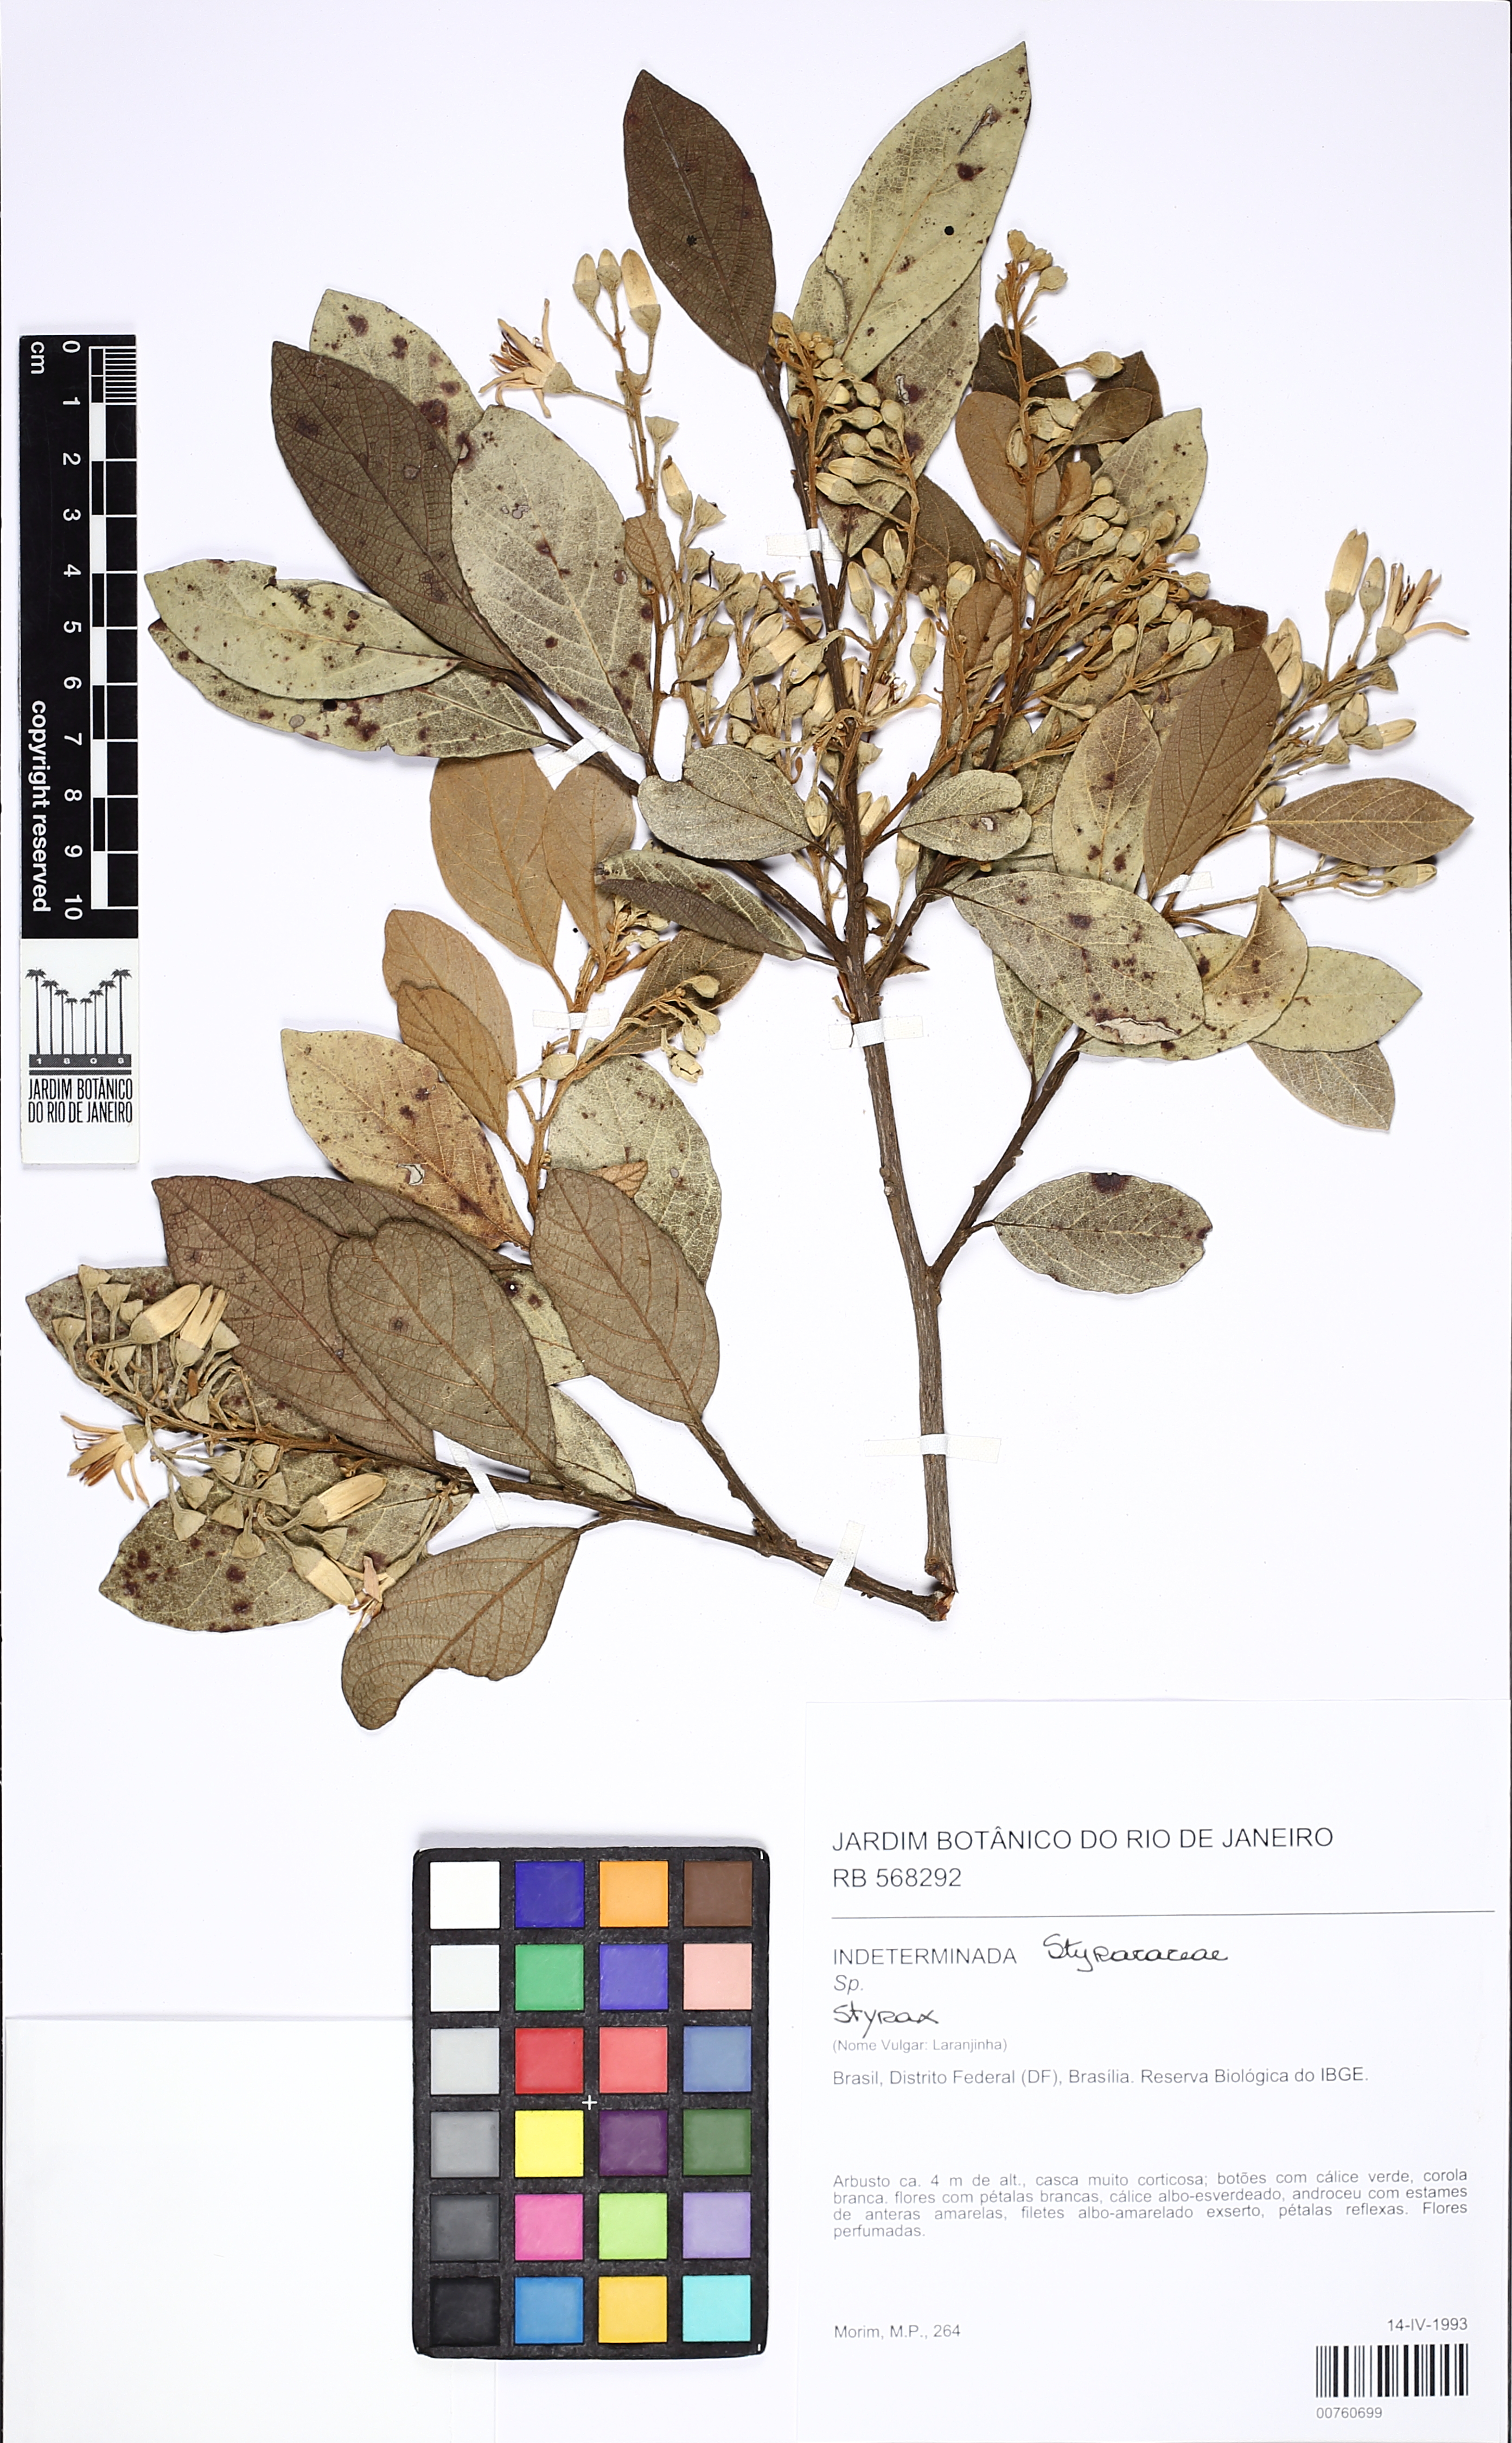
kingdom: Plantae
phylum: Tracheophyta
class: Magnoliopsida
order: Ericales
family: Styracaceae
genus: Styrax
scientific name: Styrax
